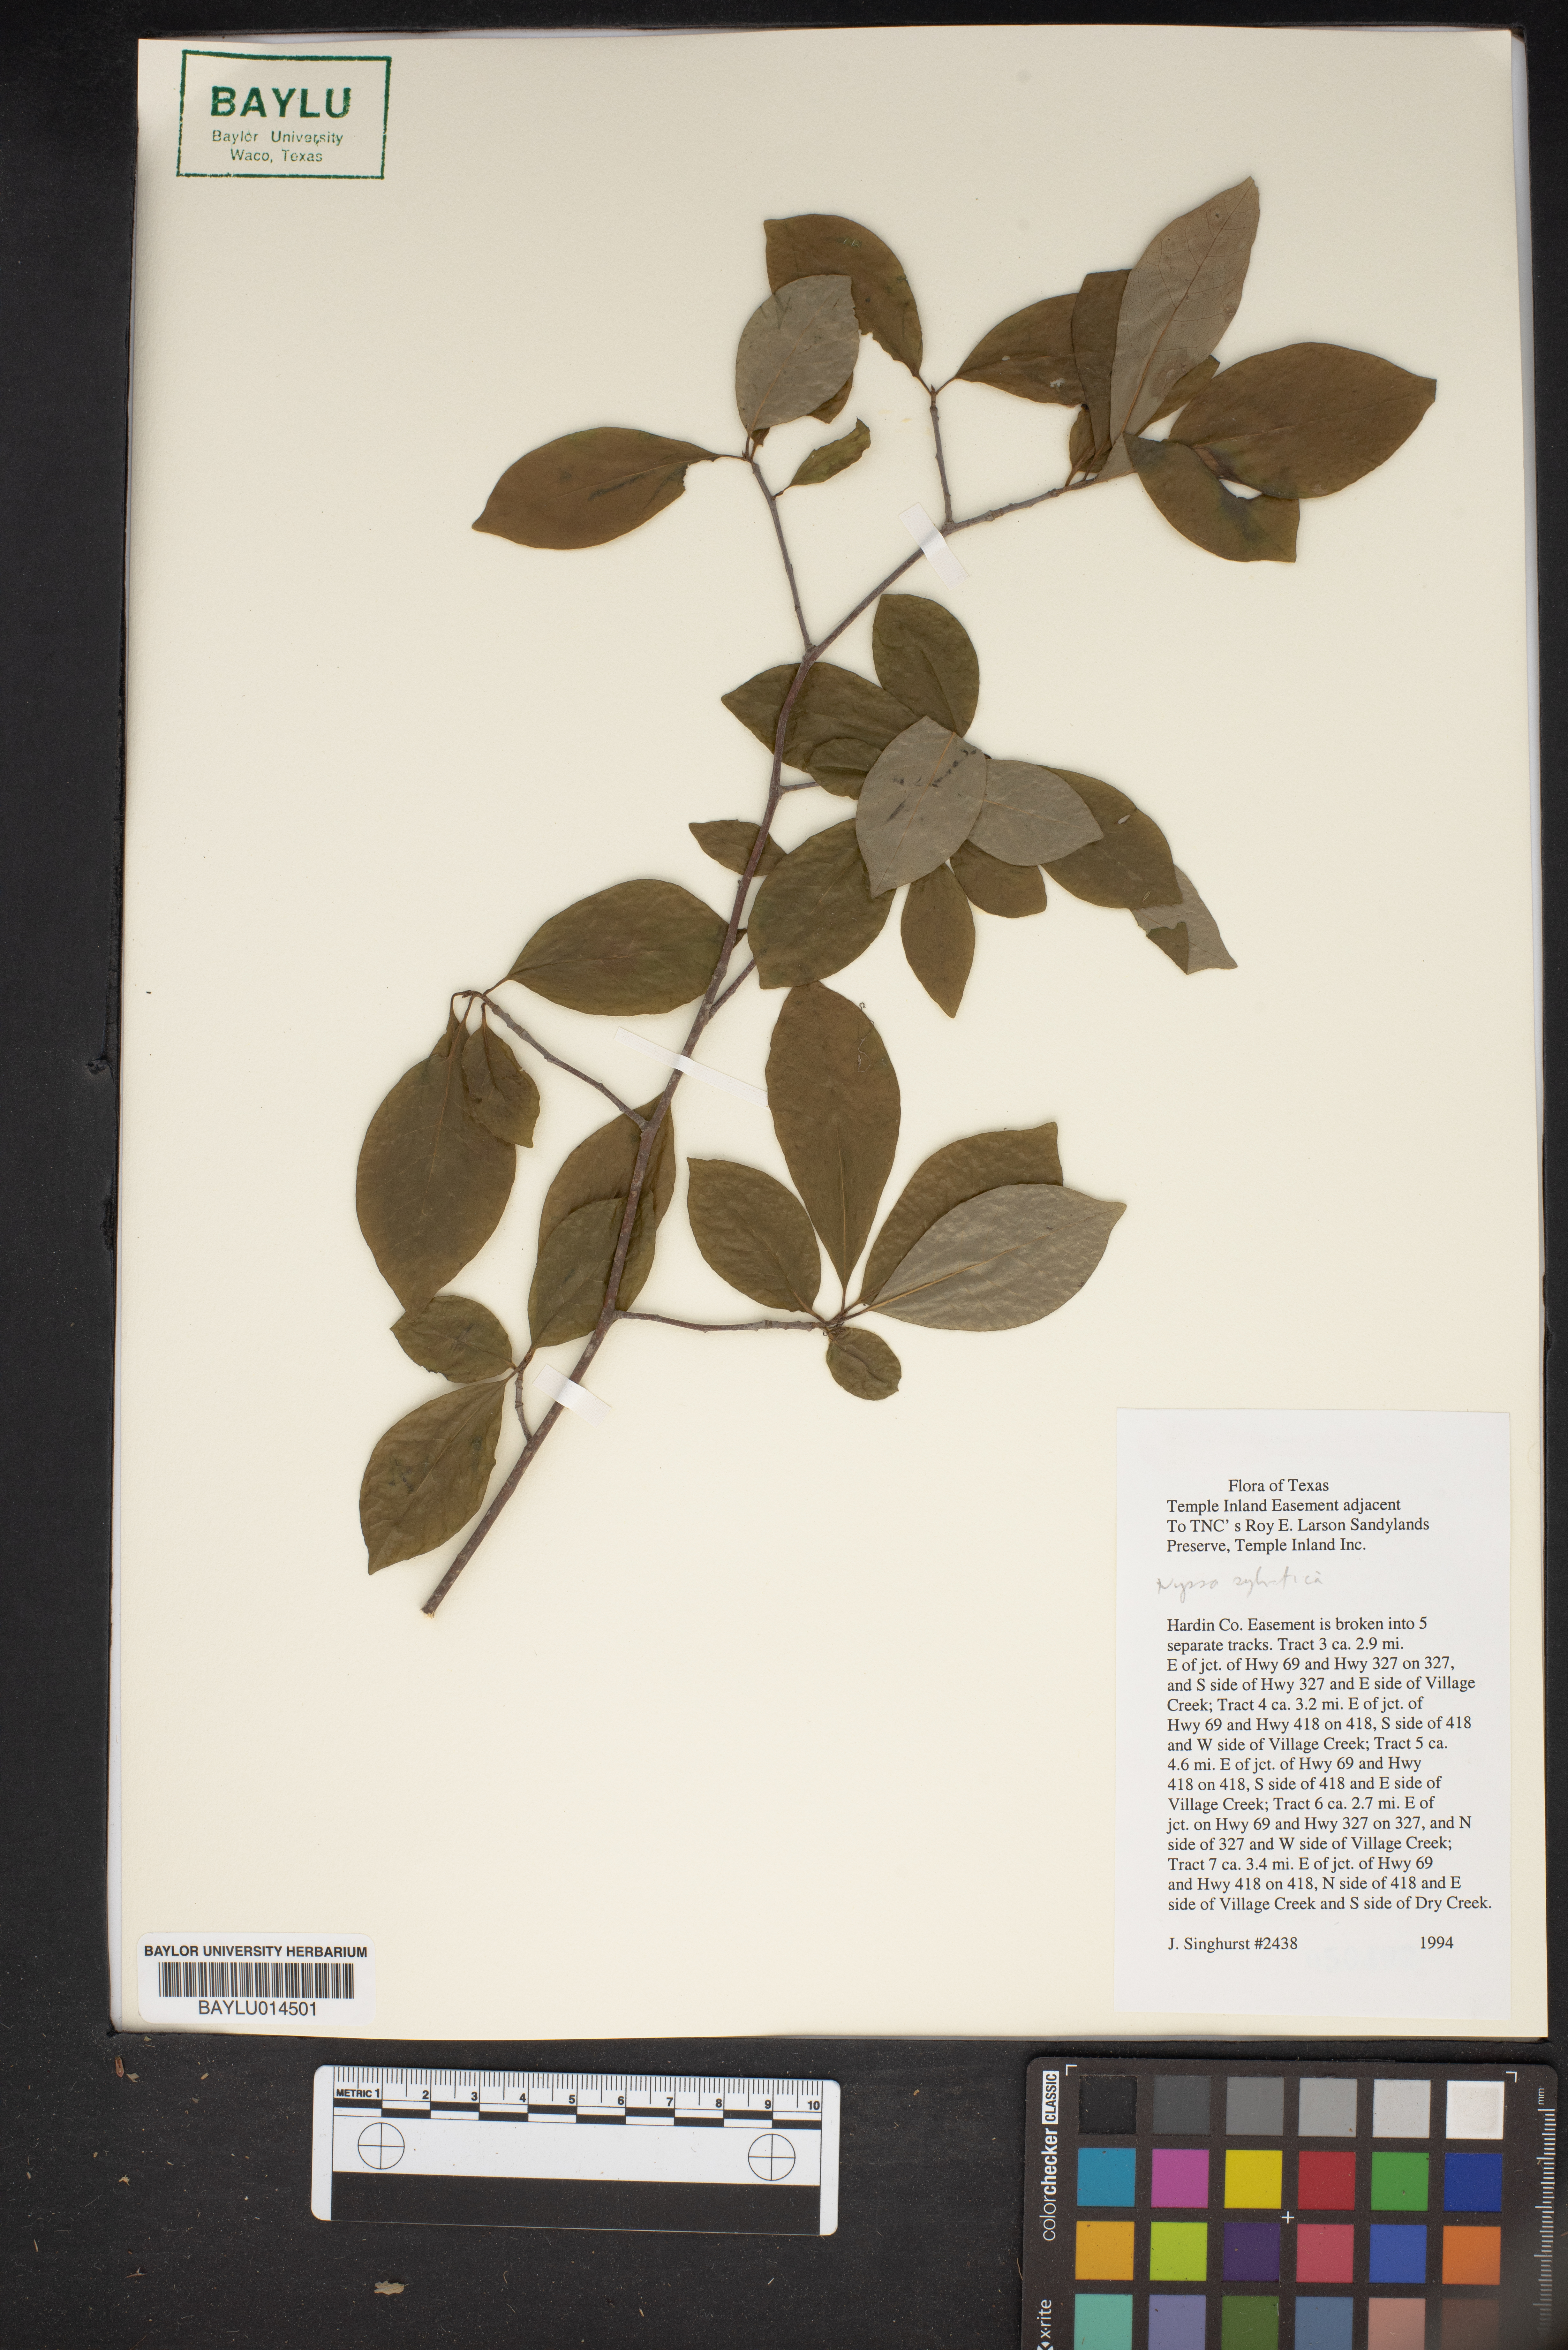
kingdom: Plantae
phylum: Tracheophyta
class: Magnoliopsida
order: Cornales
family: Nyssaceae
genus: Nyssa
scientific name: Nyssa sylvatica
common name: Black tupelo
